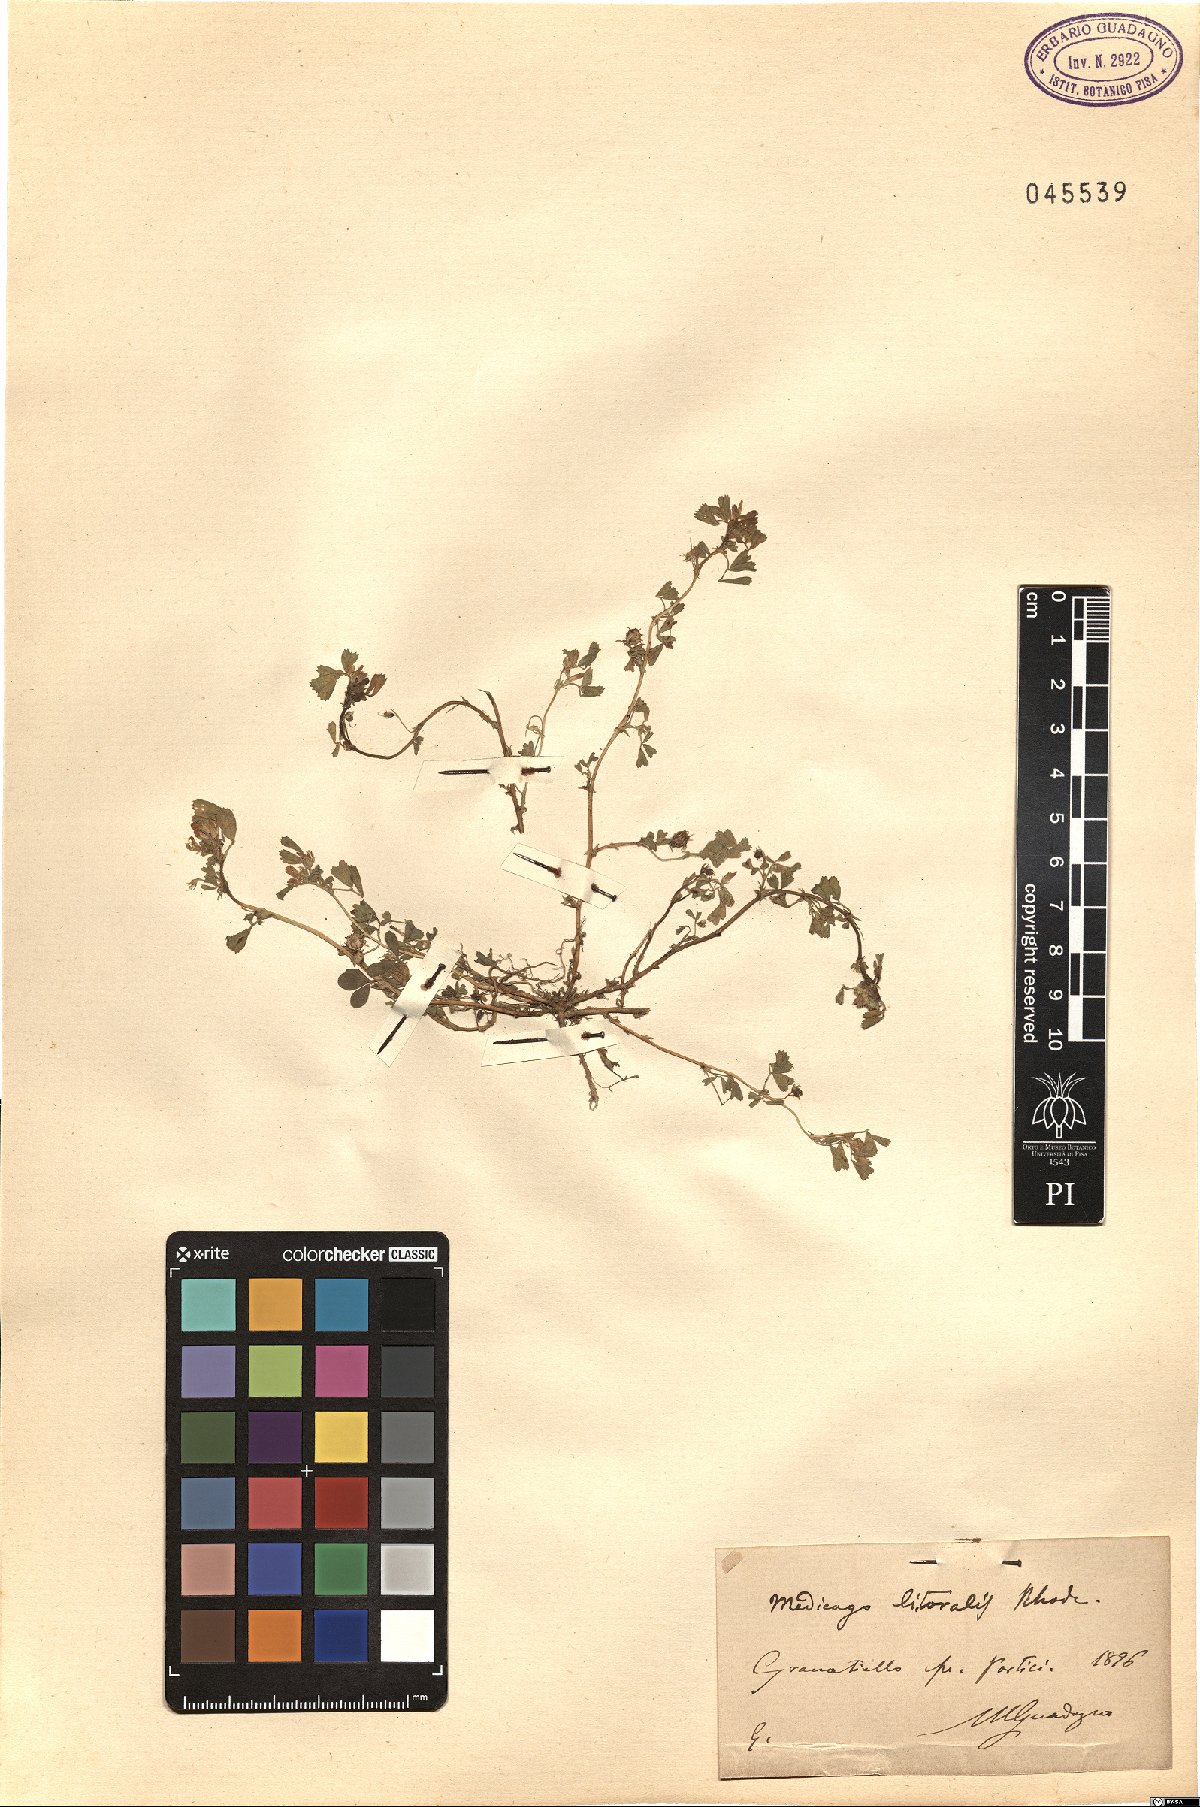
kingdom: Plantae
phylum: Tracheophyta
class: Magnoliopsida
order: Fabales
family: Fabaceae
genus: Medicago
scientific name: Medicago littoralis
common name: Shore medick
